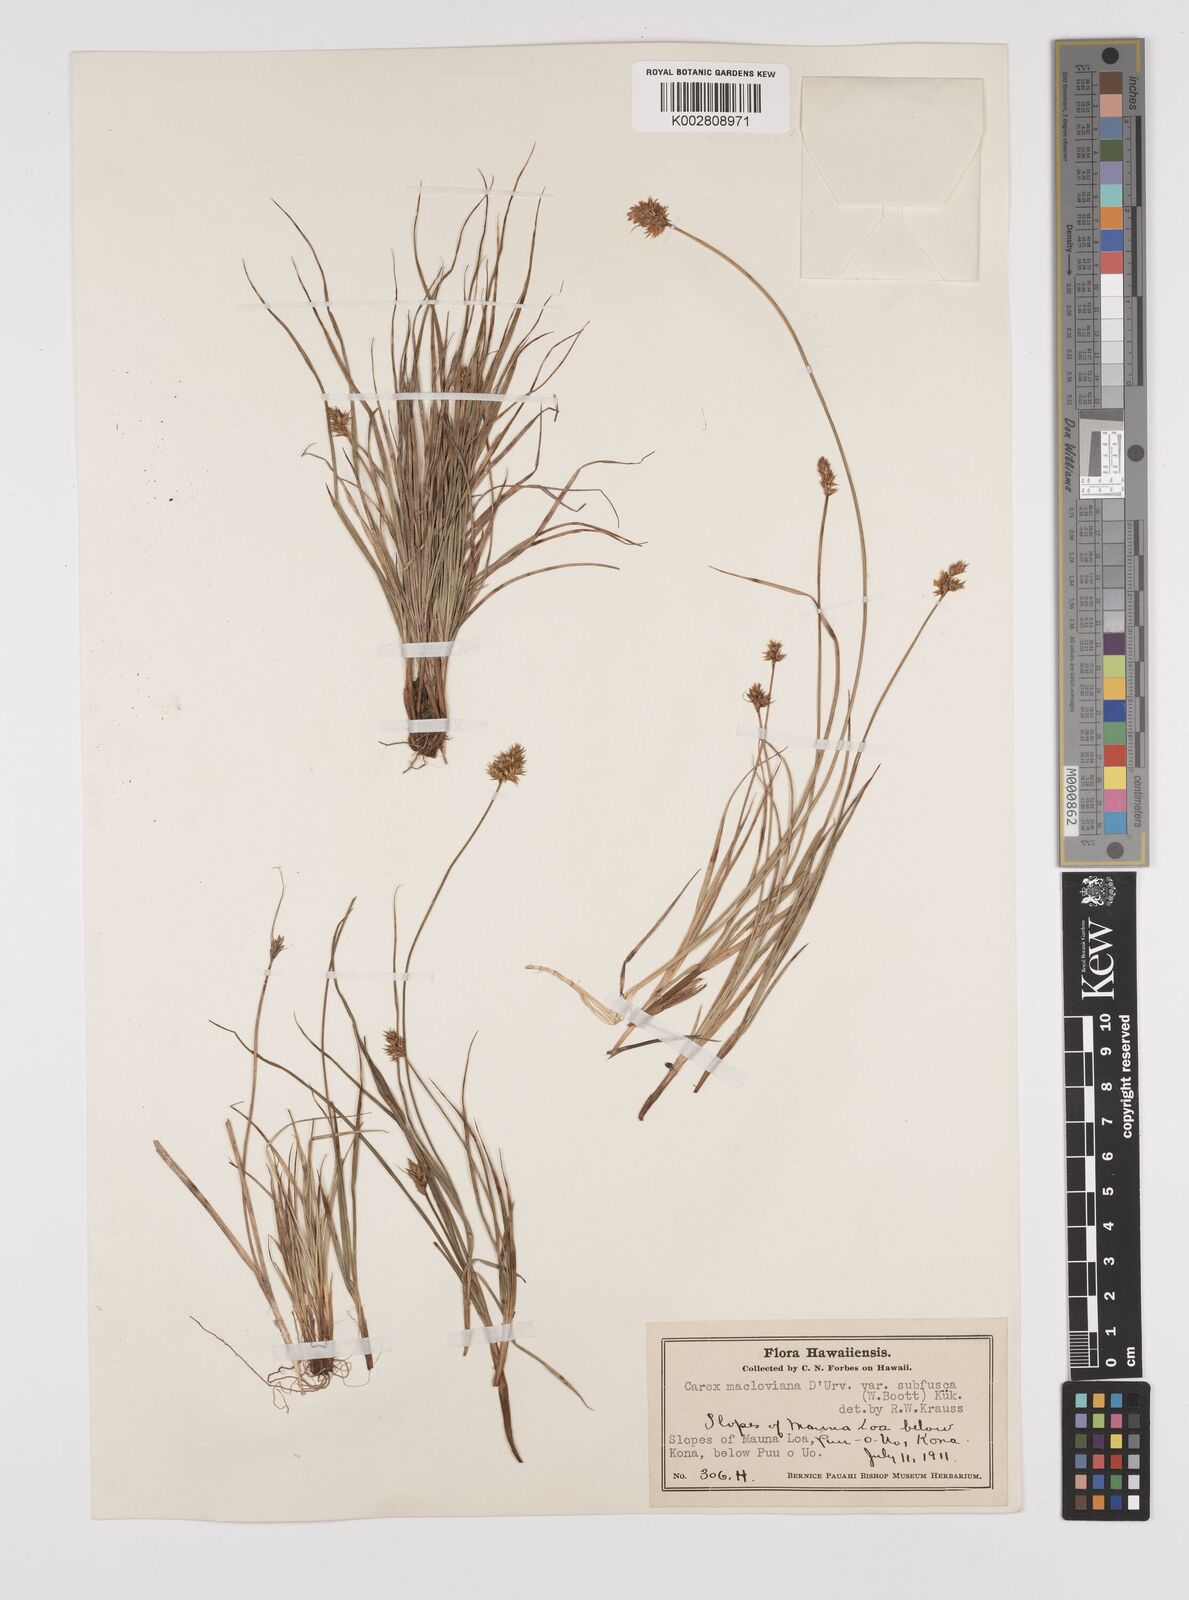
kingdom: Plantae
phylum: Tracheophyta
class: Liliopsida
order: Poales
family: Cyperaceae
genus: Carex
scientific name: Carex subfusca
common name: Brown sedge
